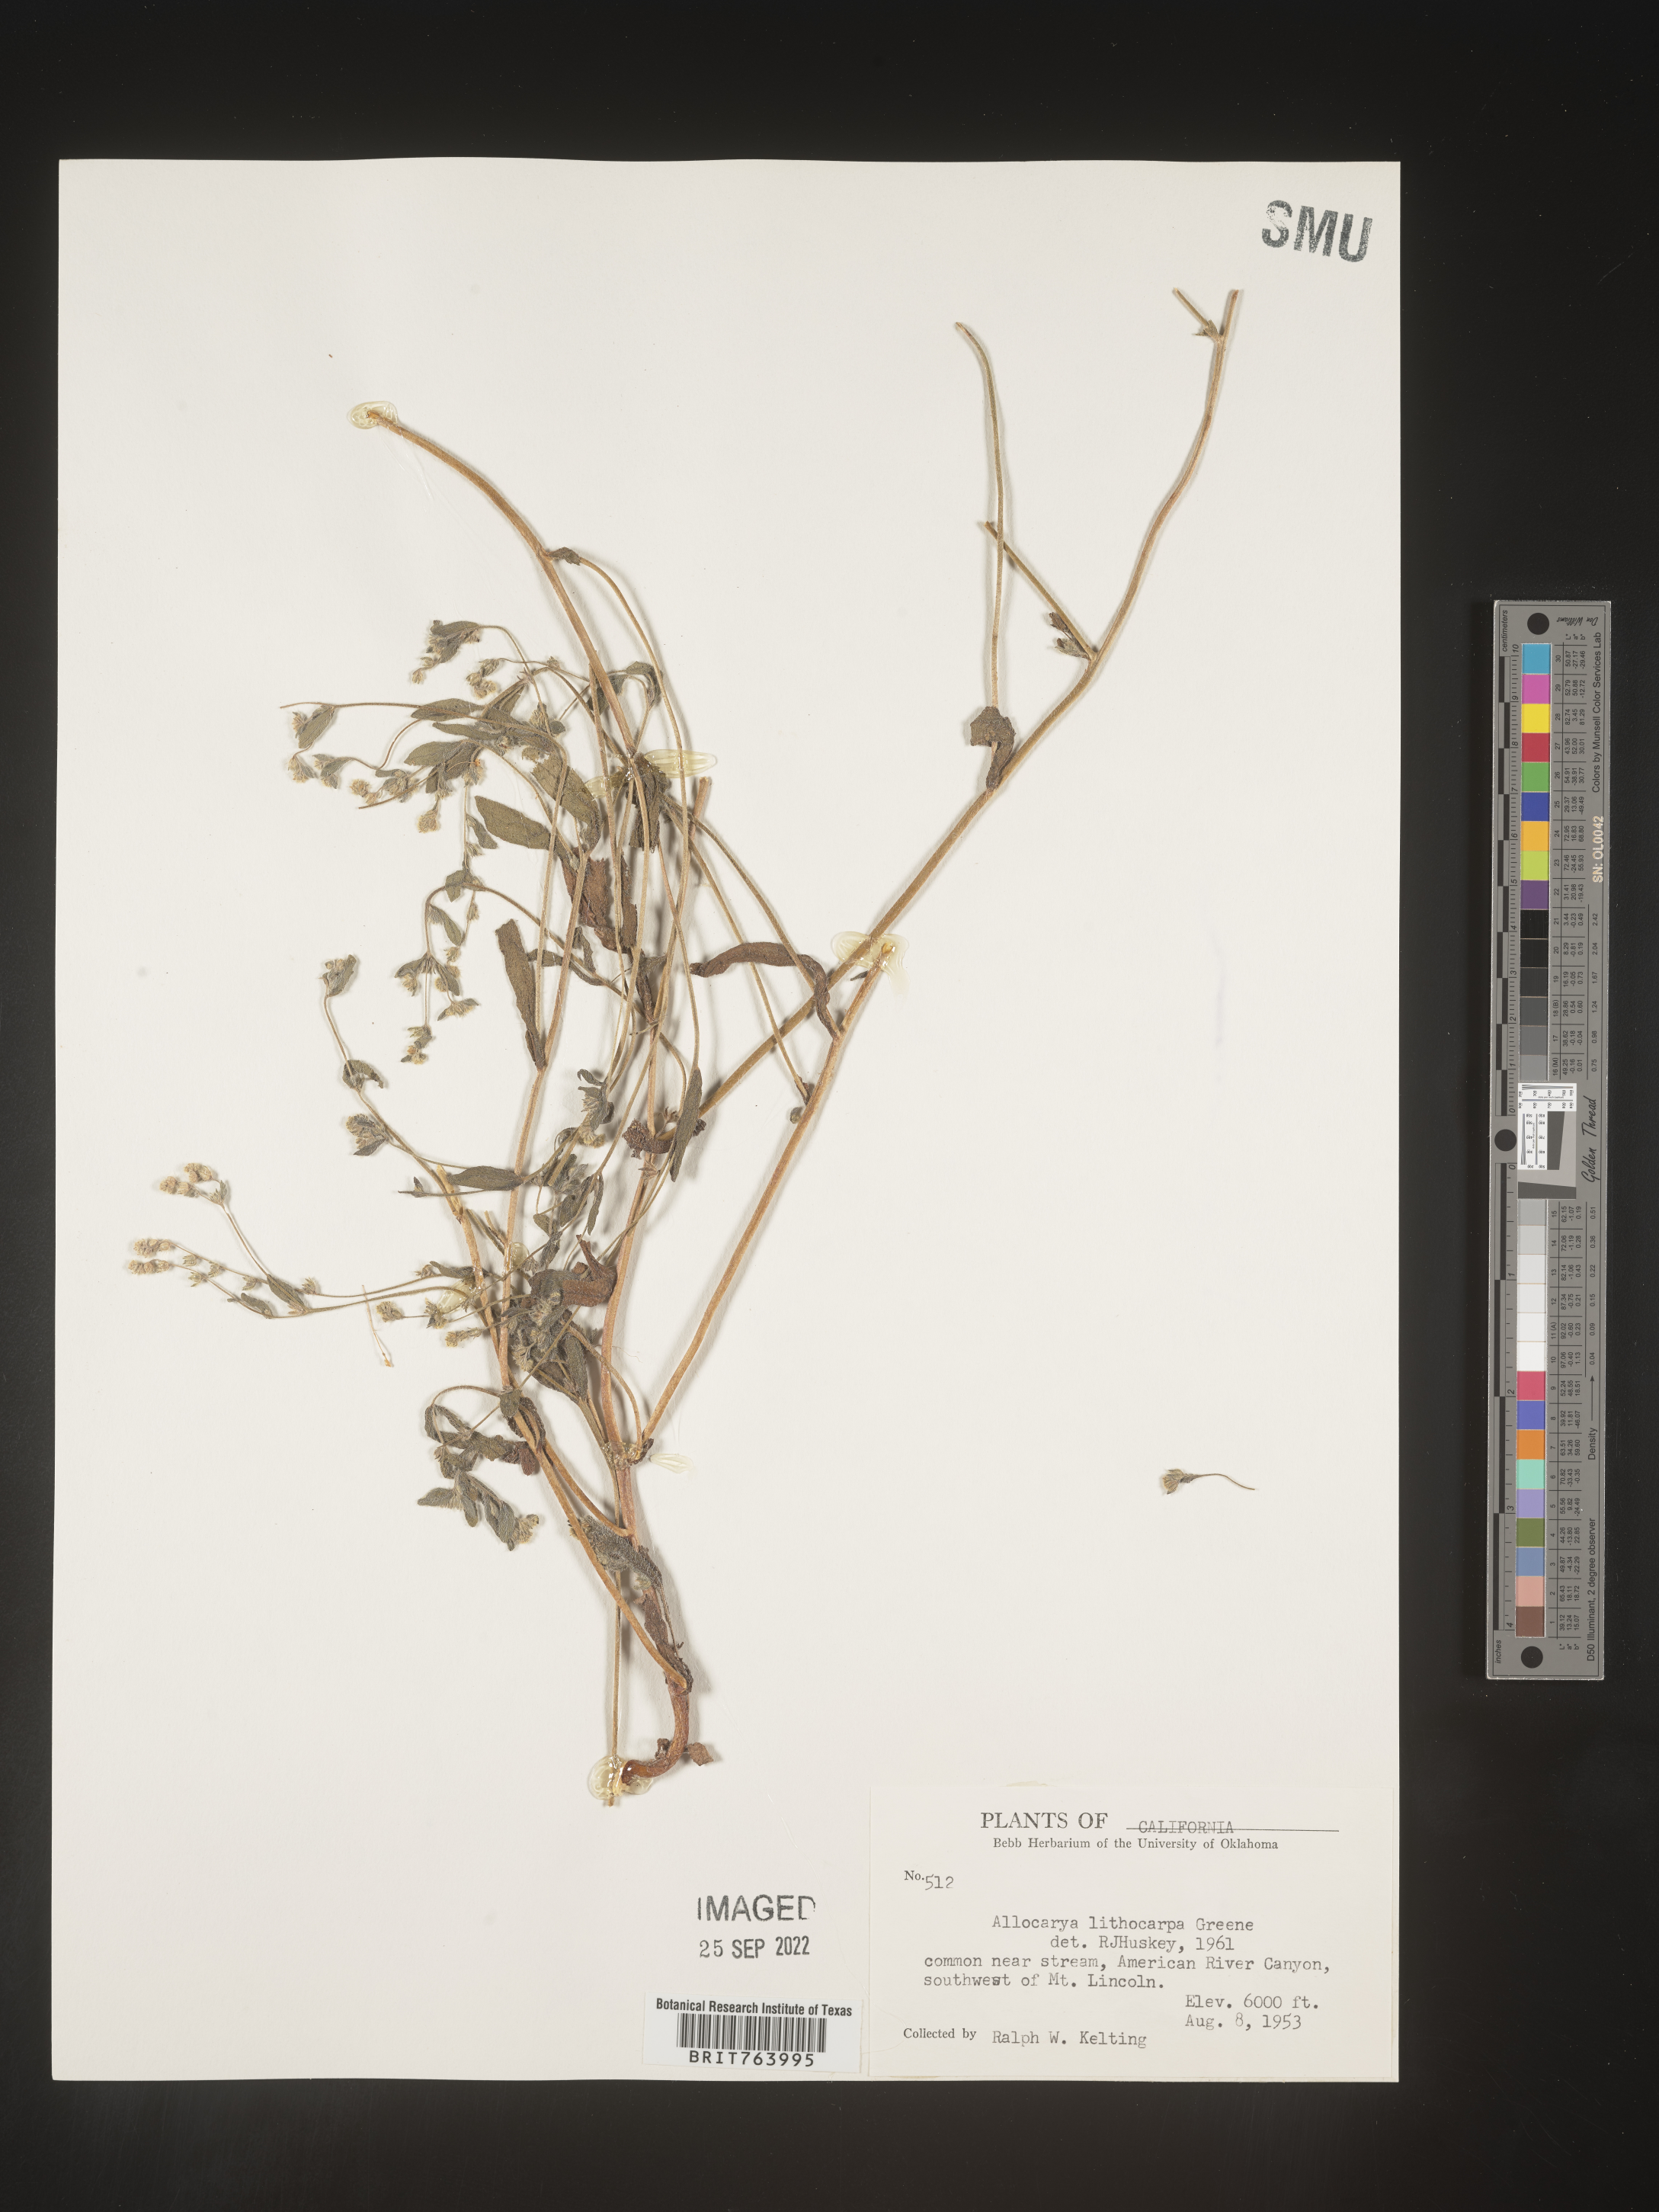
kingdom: Plantae
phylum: Tracheophyta
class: Magnoliopsida
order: Boraginales
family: Boraginaceae
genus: Plagiobothrys
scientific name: Plagiobothrys
